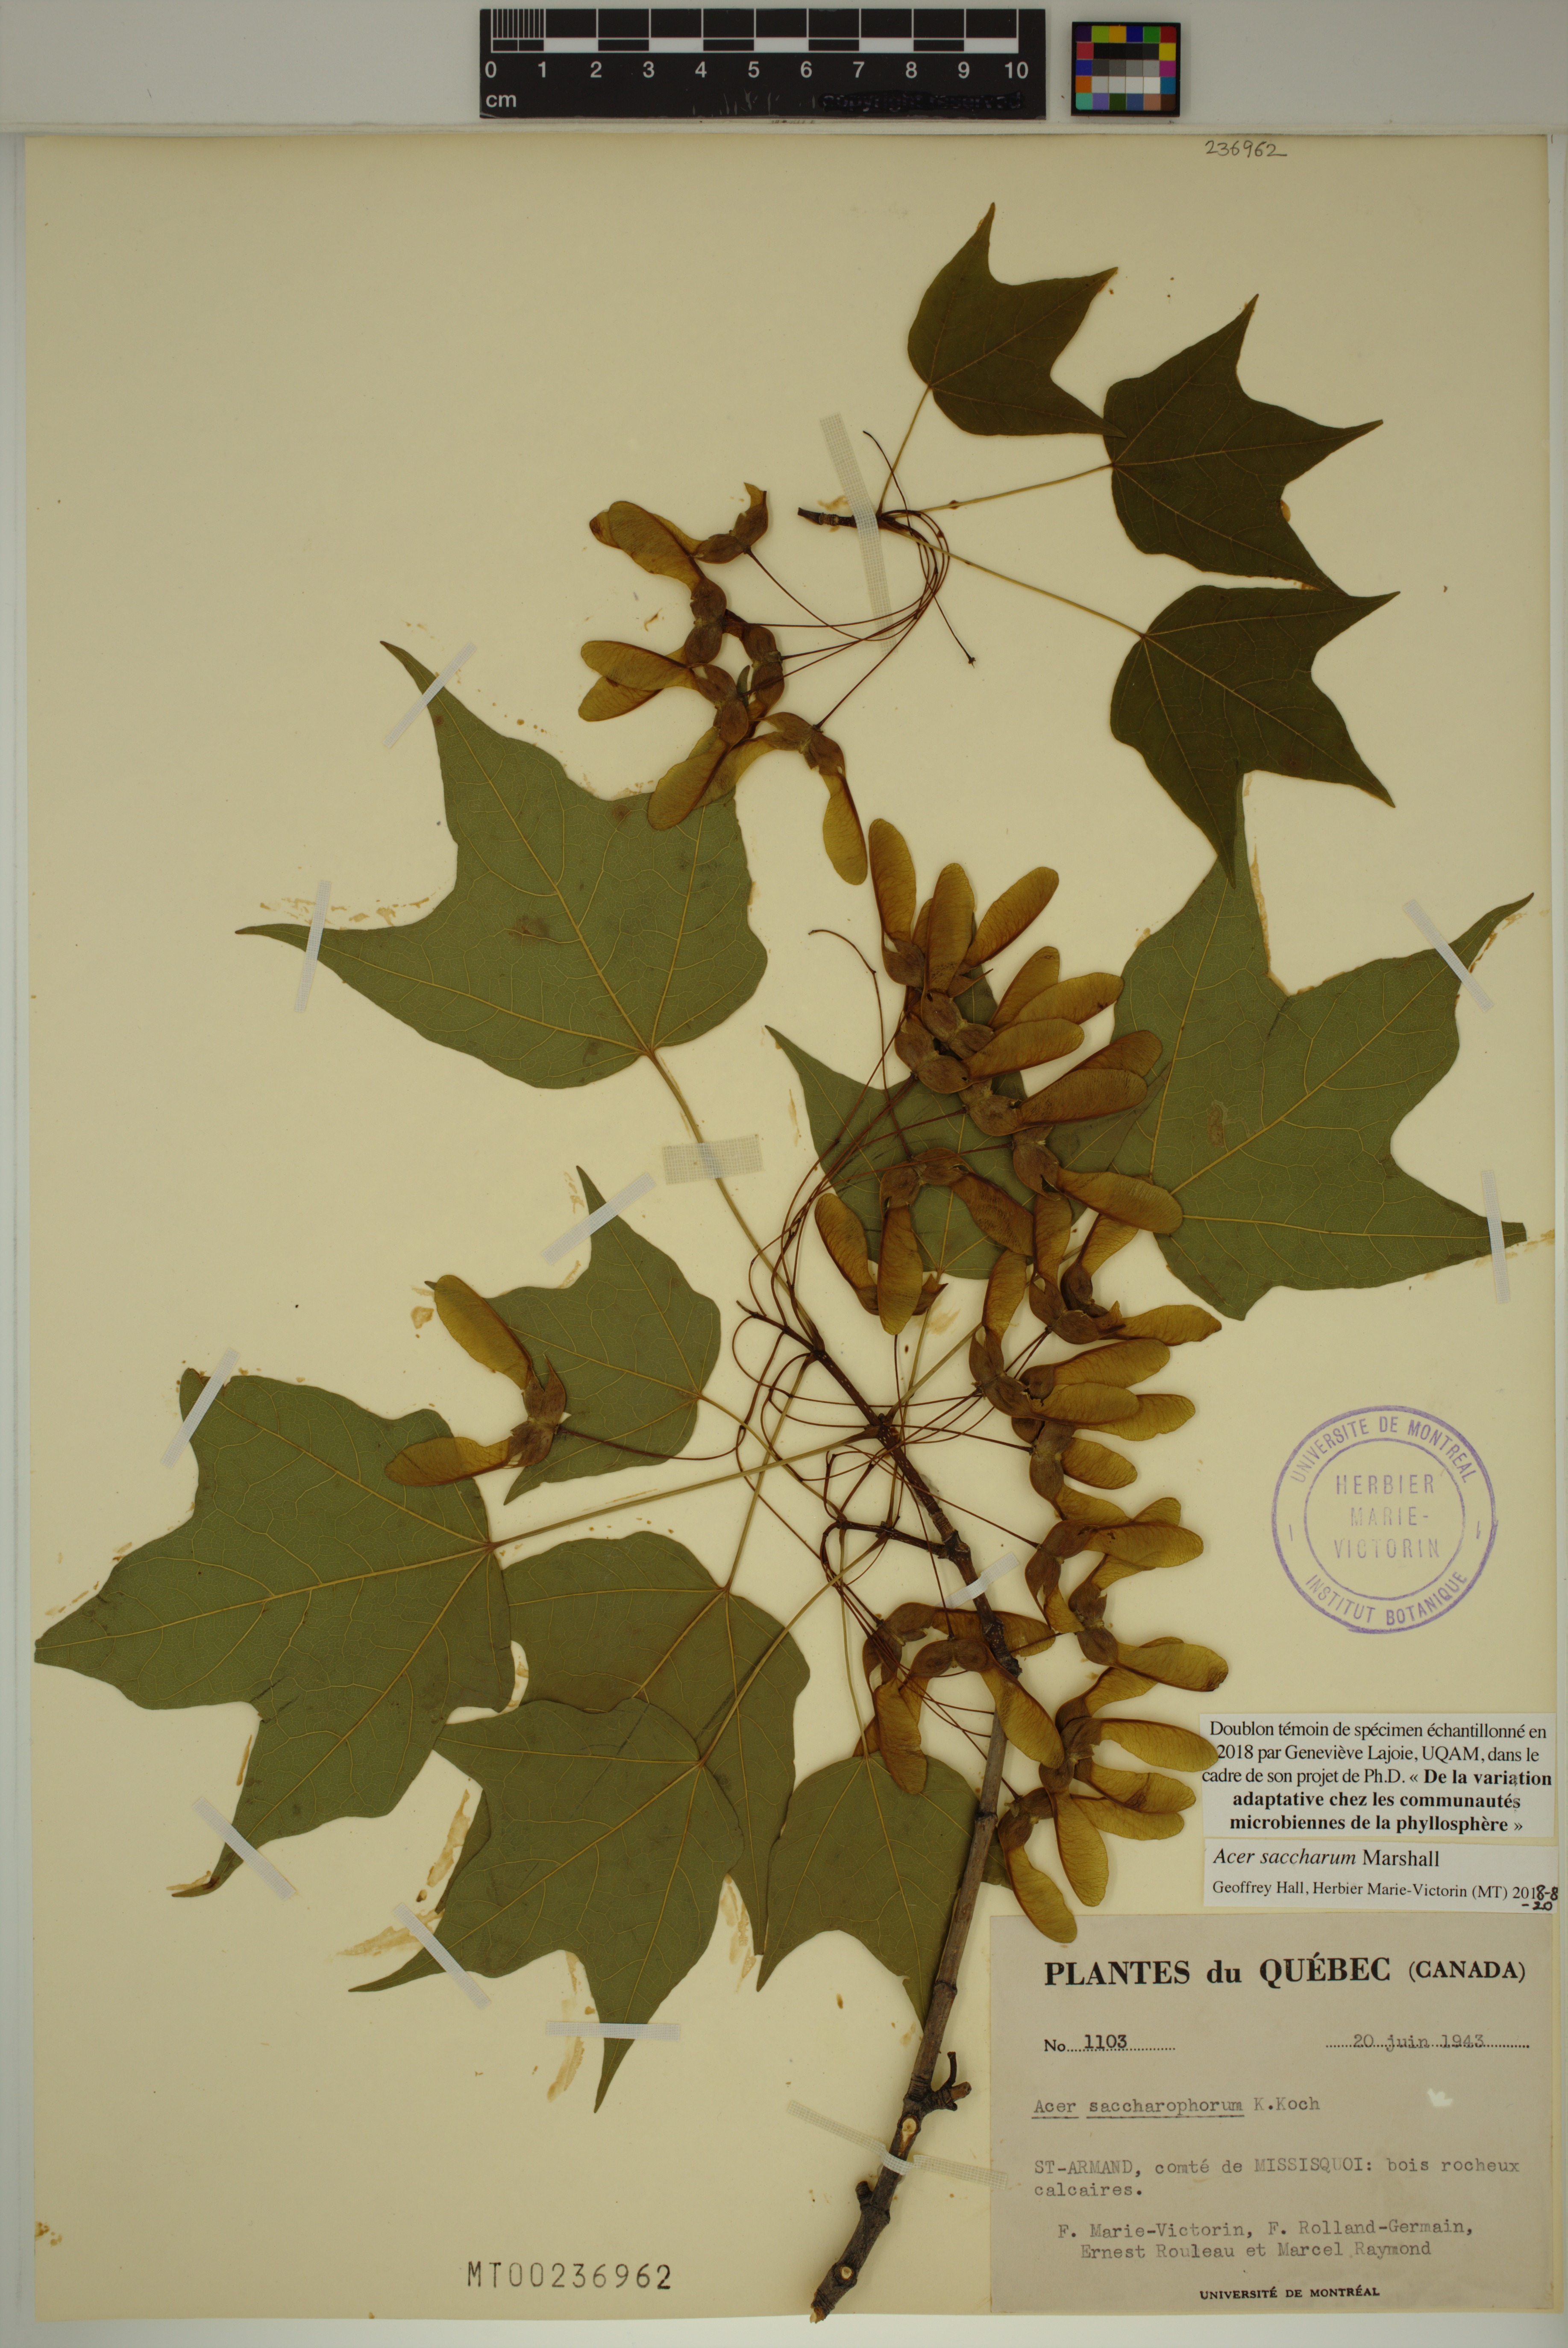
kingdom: Plantae
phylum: Tracheophyta
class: Magnoliopsida
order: Sapindales
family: Sapindaceae
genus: Acer
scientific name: Acer saccharum
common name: Sugar maple
